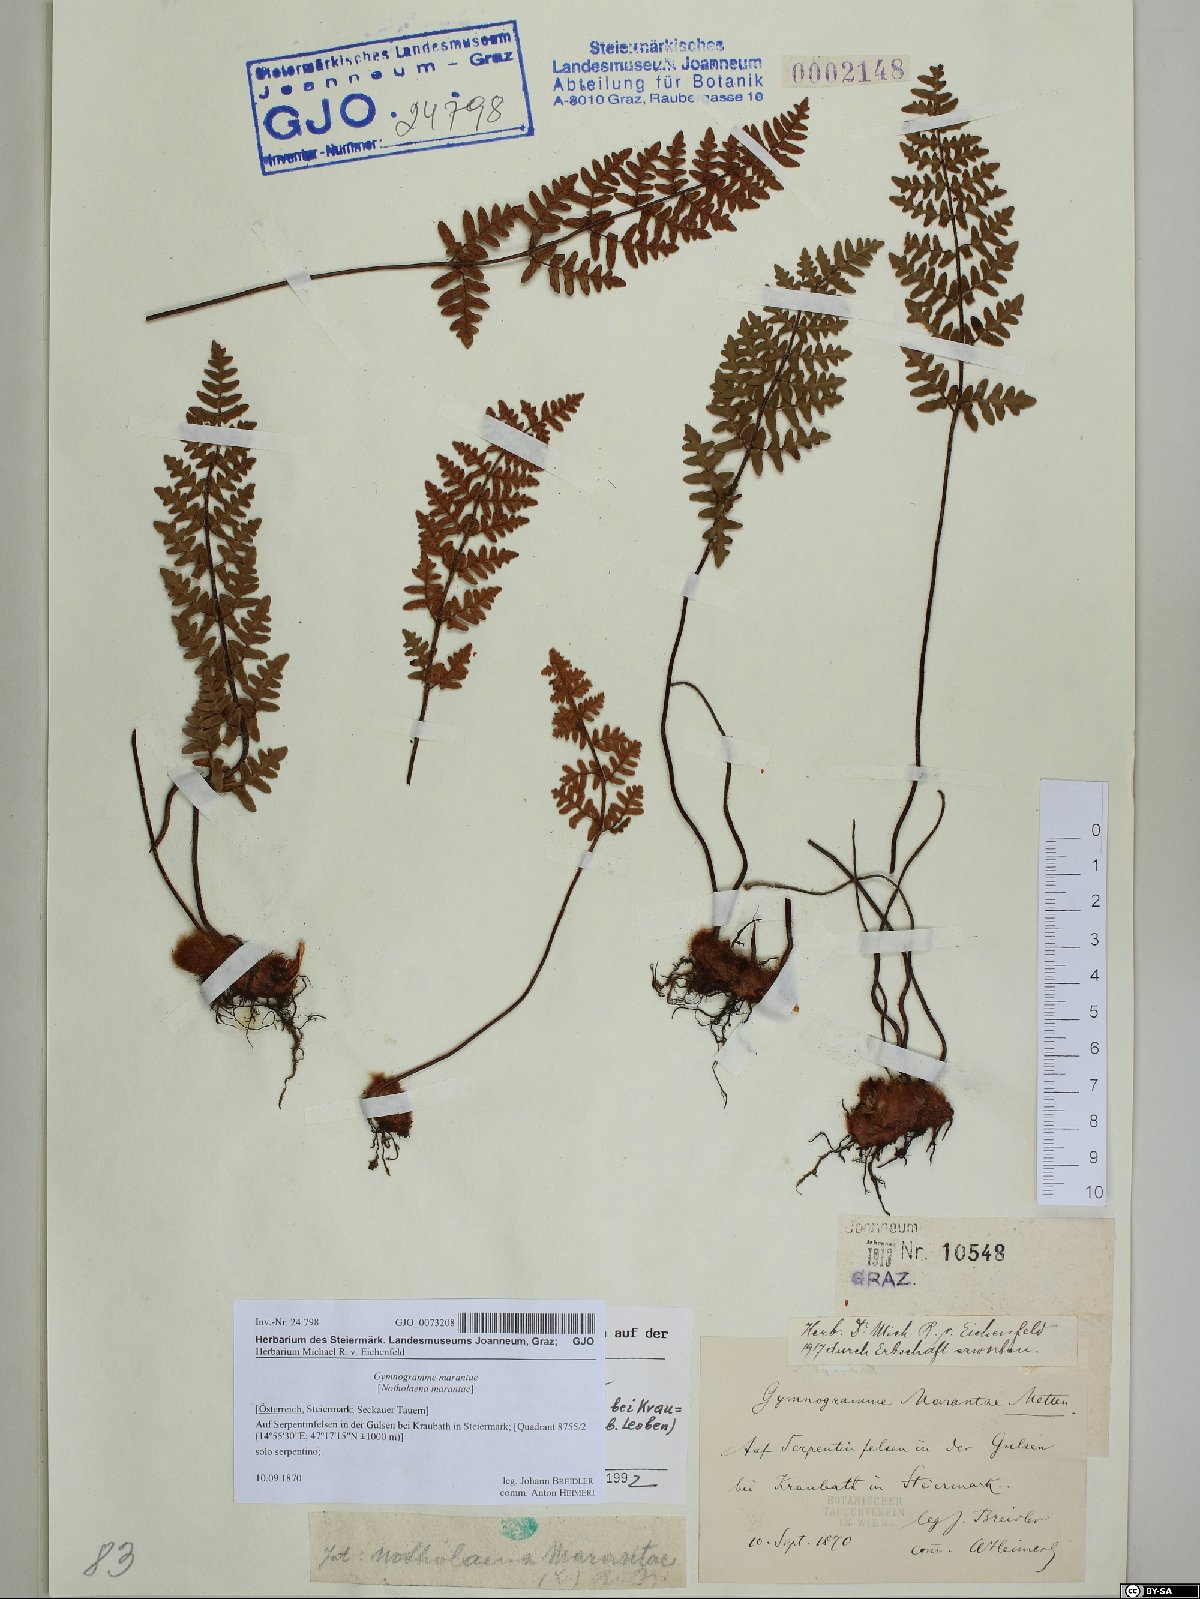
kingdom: Plantae
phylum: Tracheophyta
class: Polypodiopsida
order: Polypodiales
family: Pteridaceae
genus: Paragymnopteris
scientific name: Paragymnopteris marantae
